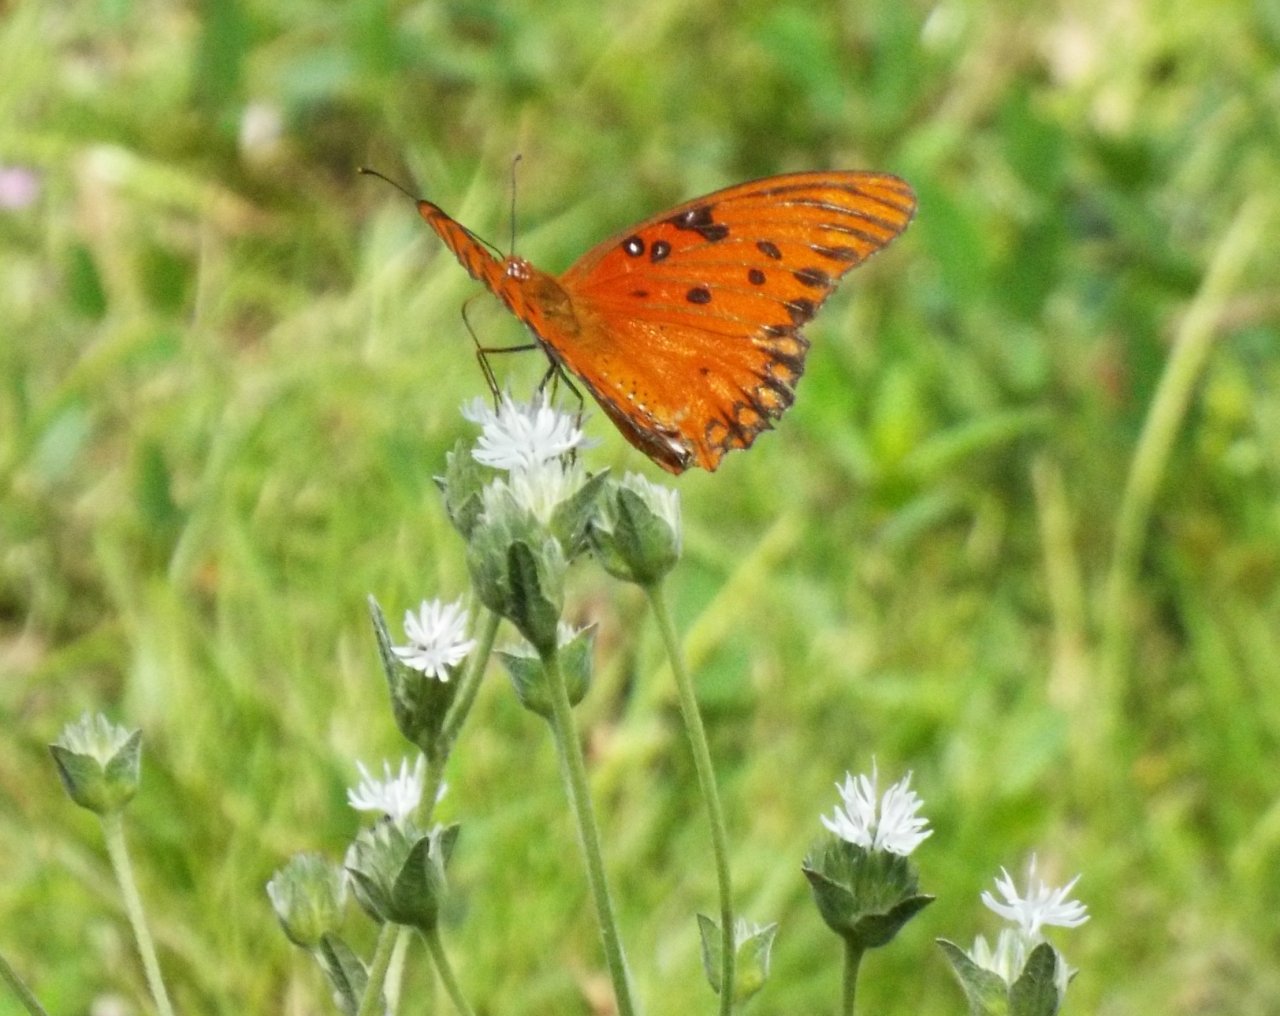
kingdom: Animalia
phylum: Arthropoda
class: Insecta
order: Lepidoptera
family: Nymphalidae
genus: Dione
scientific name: Dione vanillae
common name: Gulf Fritillary
